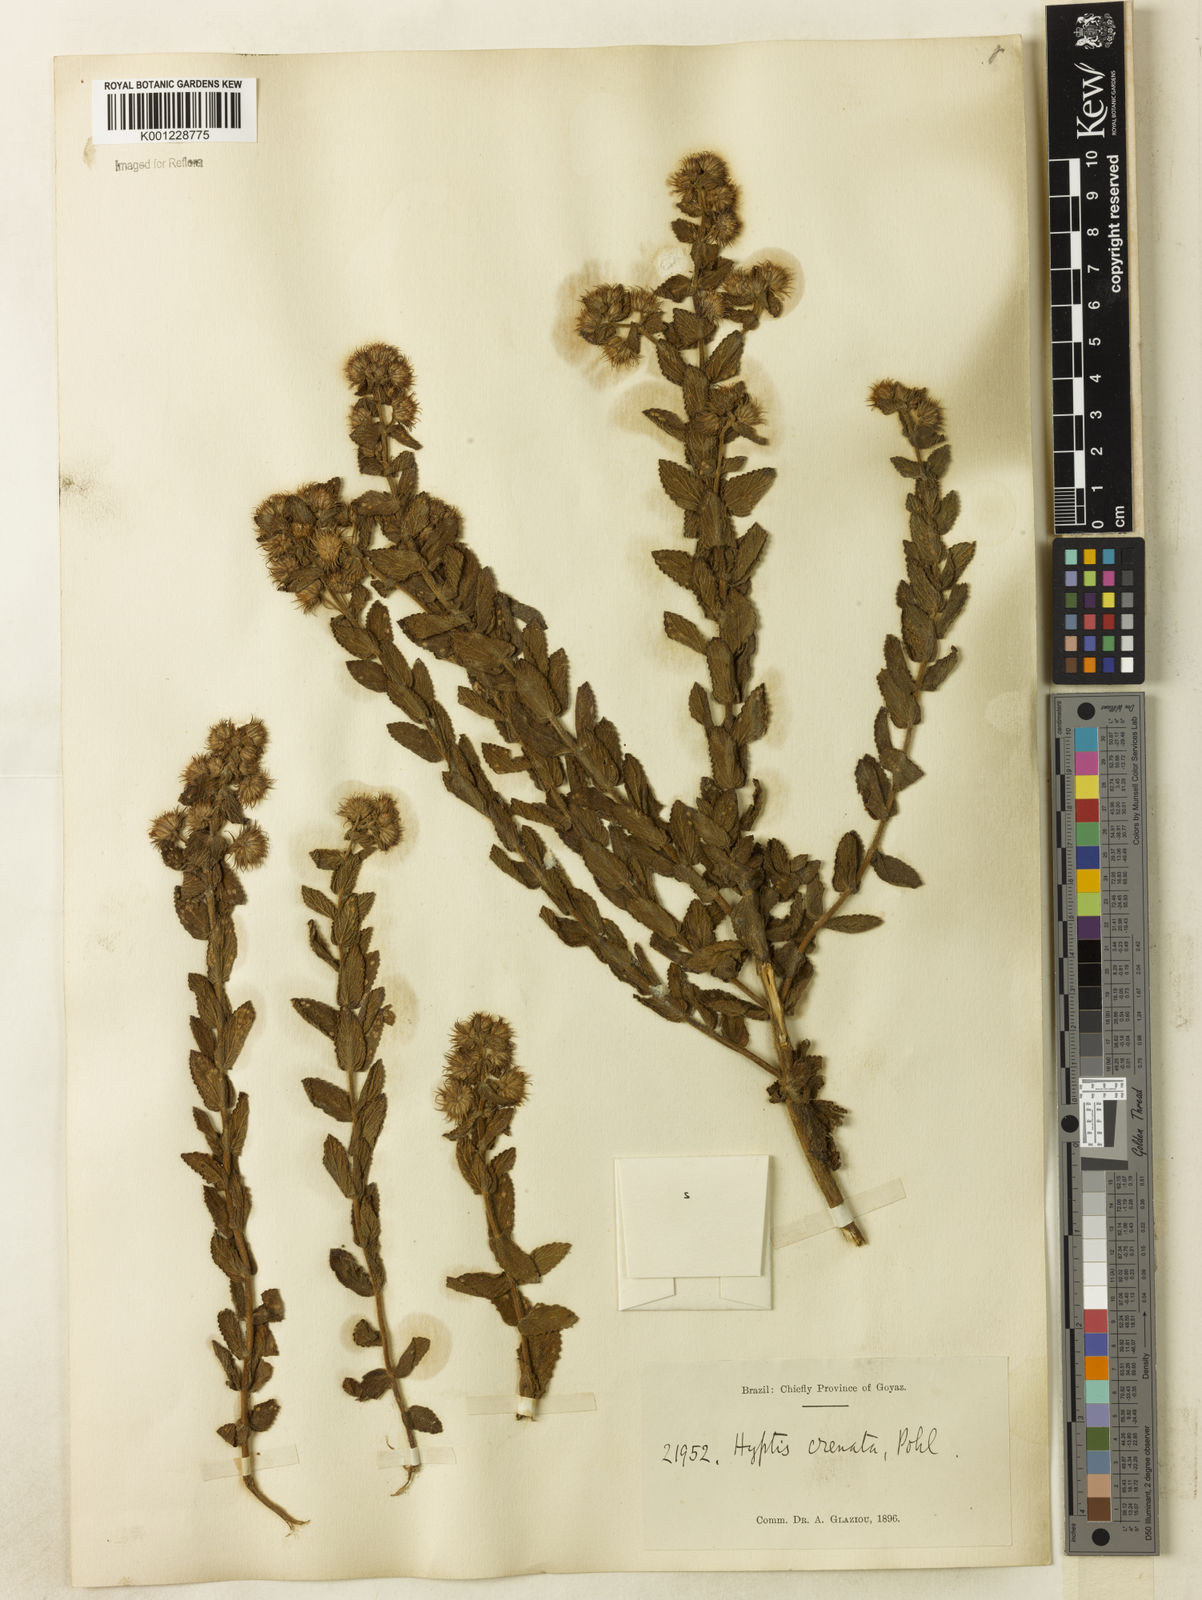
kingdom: Plantae
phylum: Tracheophyta
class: Magnoliopsida
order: Lamiales
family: Lamiaceae
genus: Hyptis
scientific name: Hyptis crenata
